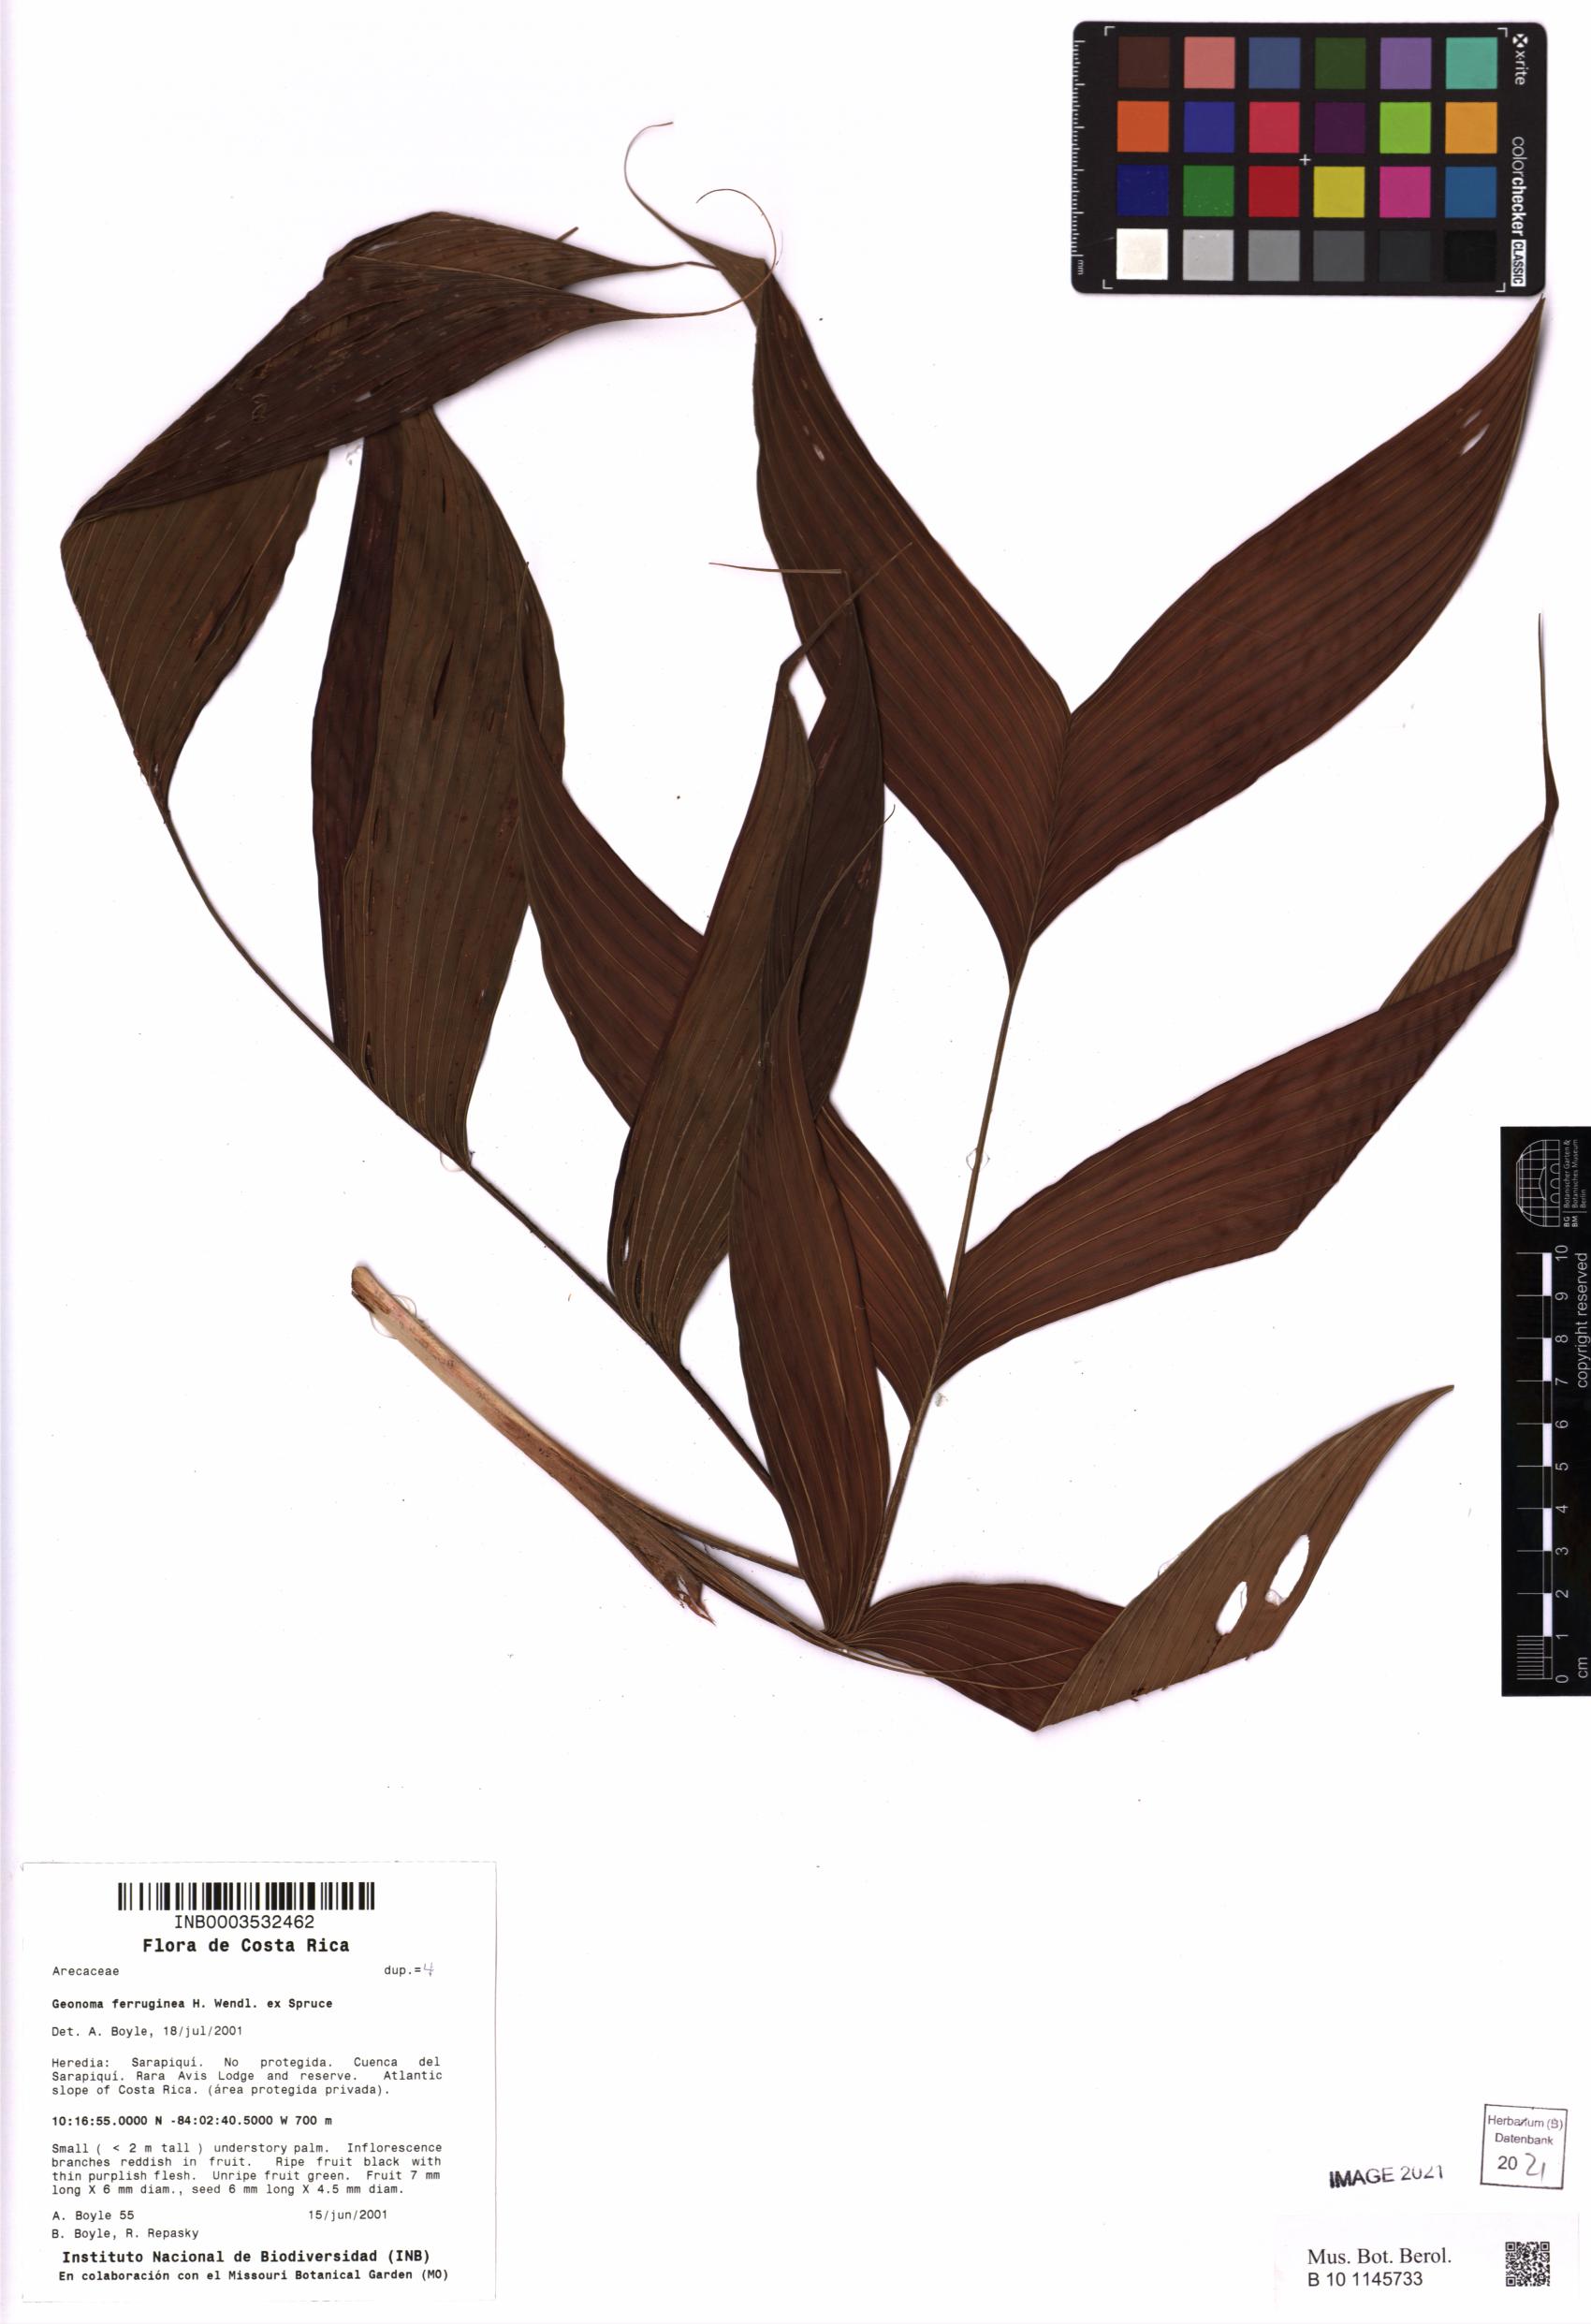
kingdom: Plantae
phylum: Tracheophyta
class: Liliopsida
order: Arecales
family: Arecaceae
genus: Geonoma
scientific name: Geonoma ferruginea
